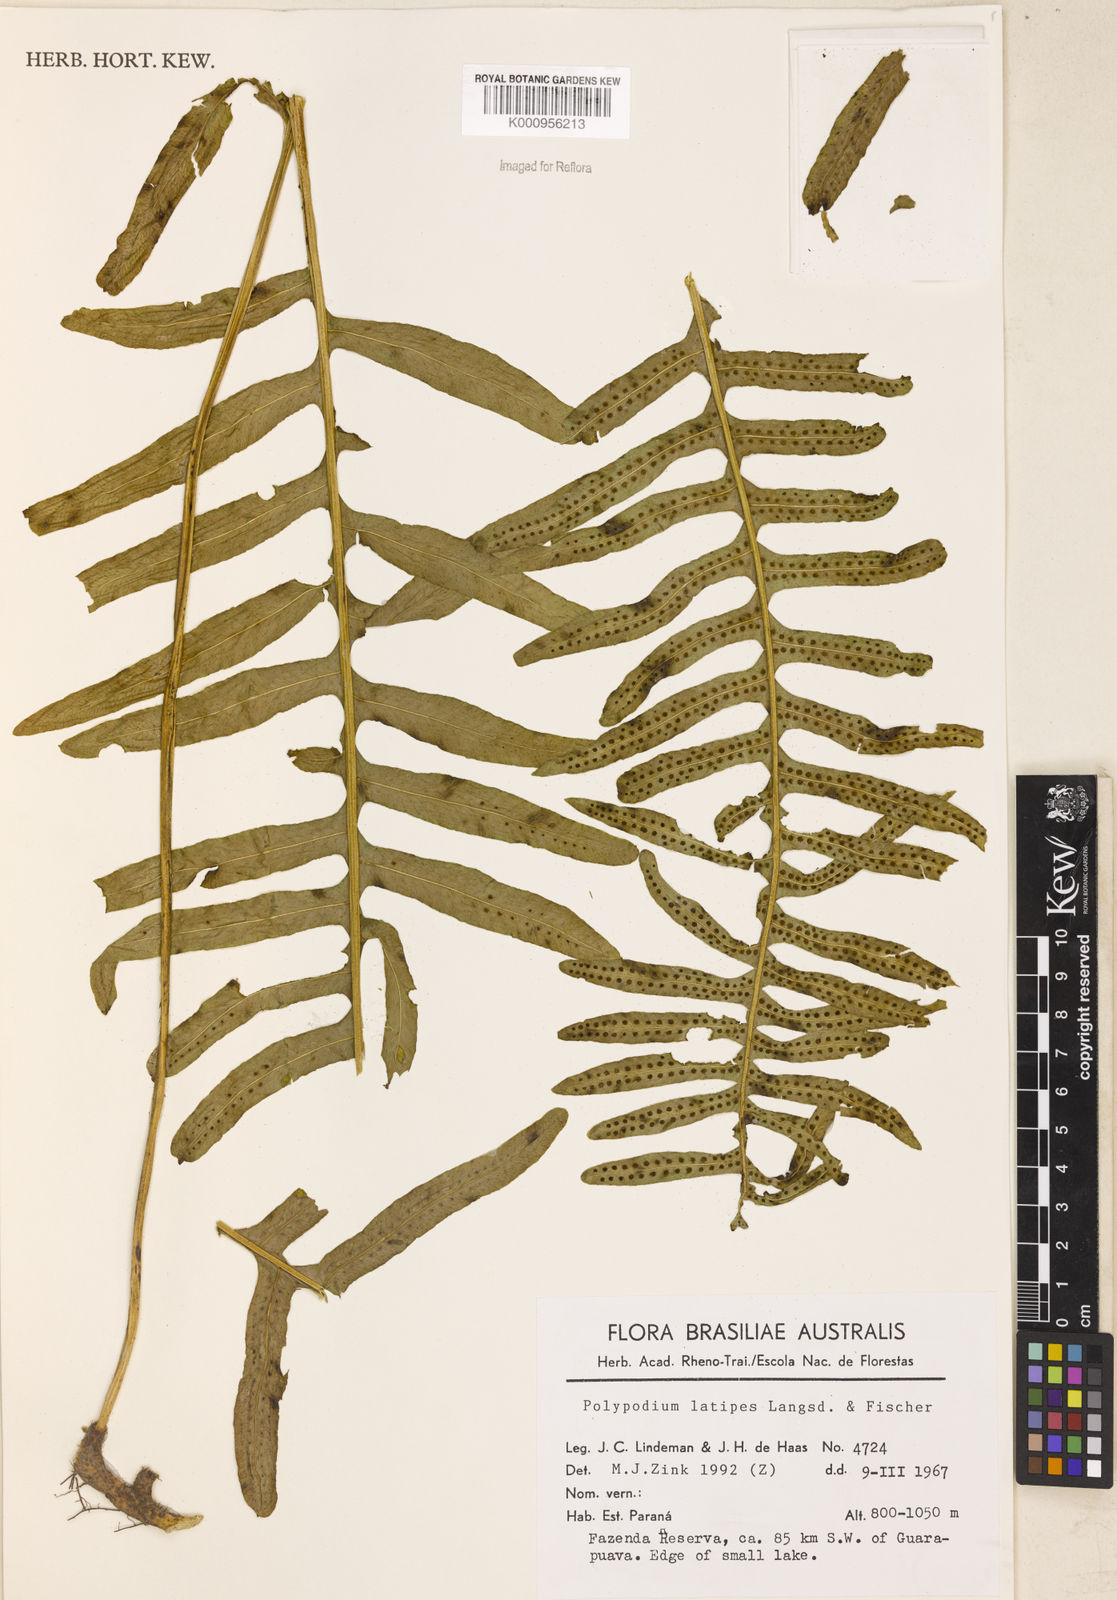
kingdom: Plantae
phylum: Tracheophyta
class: Polypodiopsida
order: Polypodiales
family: Polypodiaceae
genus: Serpocaulon
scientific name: Serpocaulon latipes
